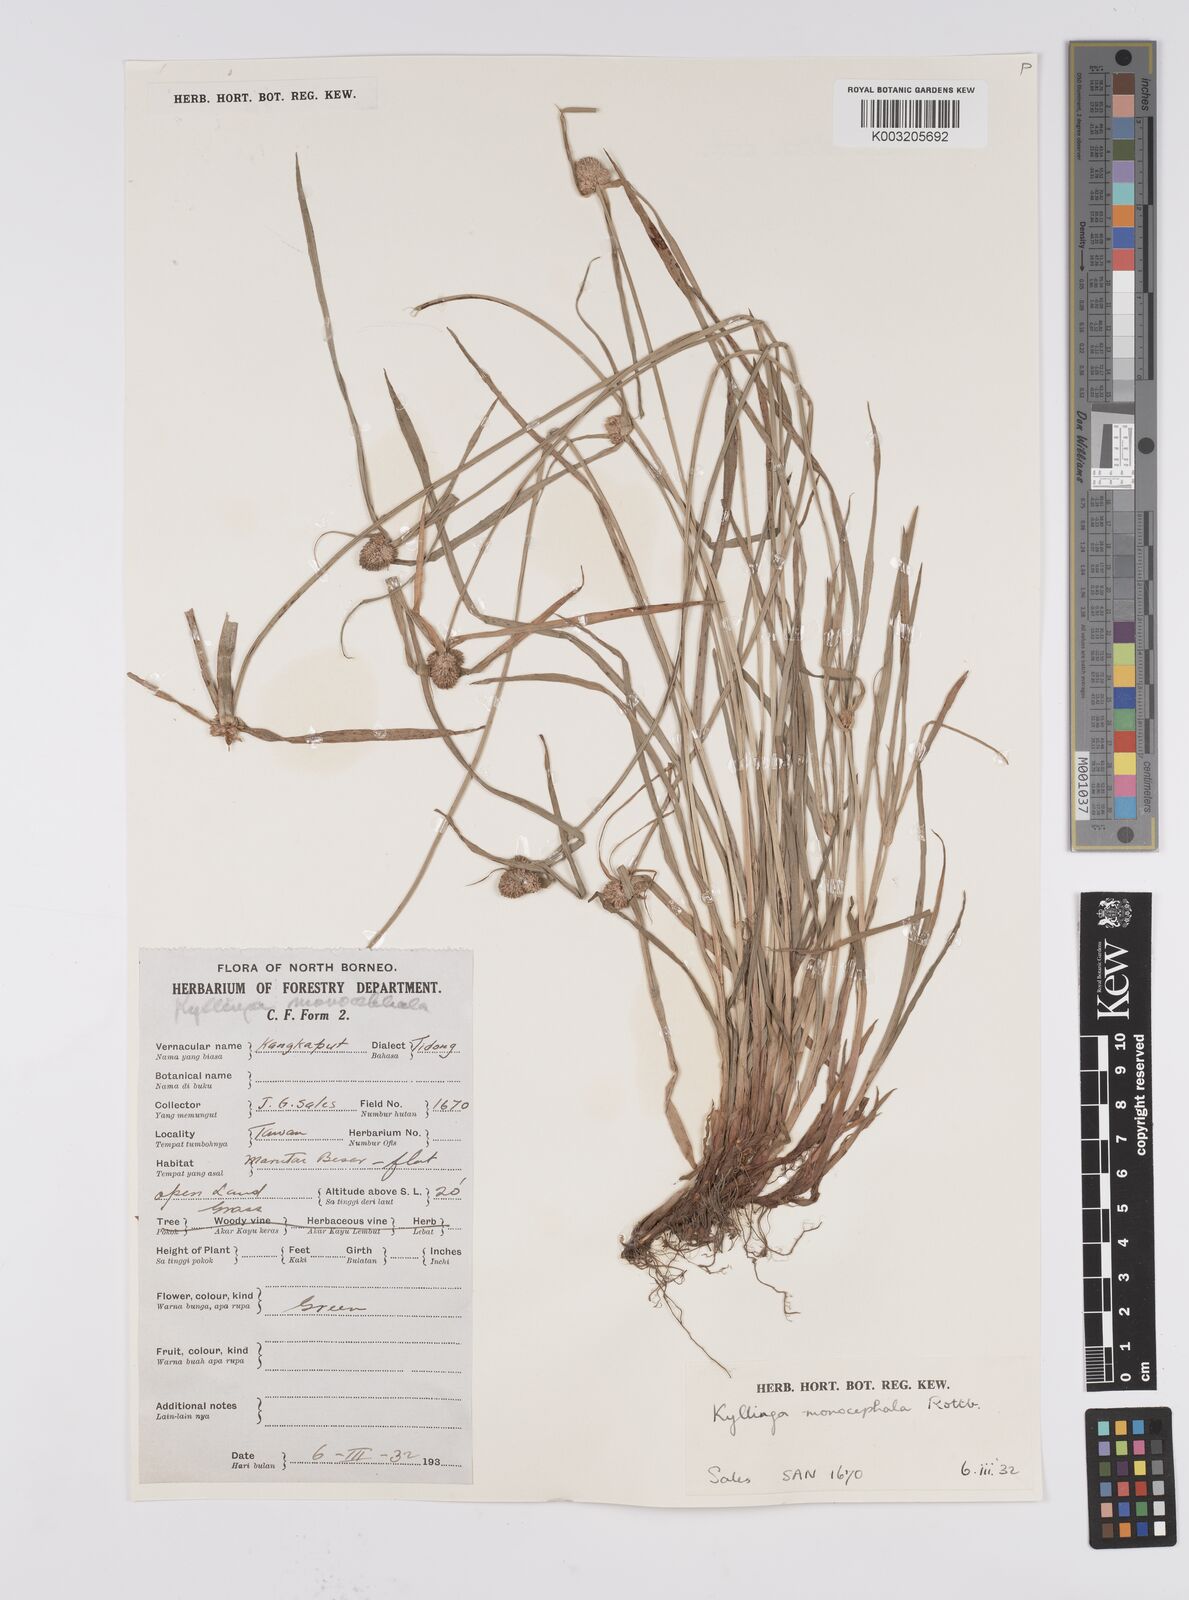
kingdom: Plantae
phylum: Tracheophyta
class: Liliopsida
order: Poales
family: Cyperaceae
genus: Cyperus
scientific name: Cyperus nemoralis
